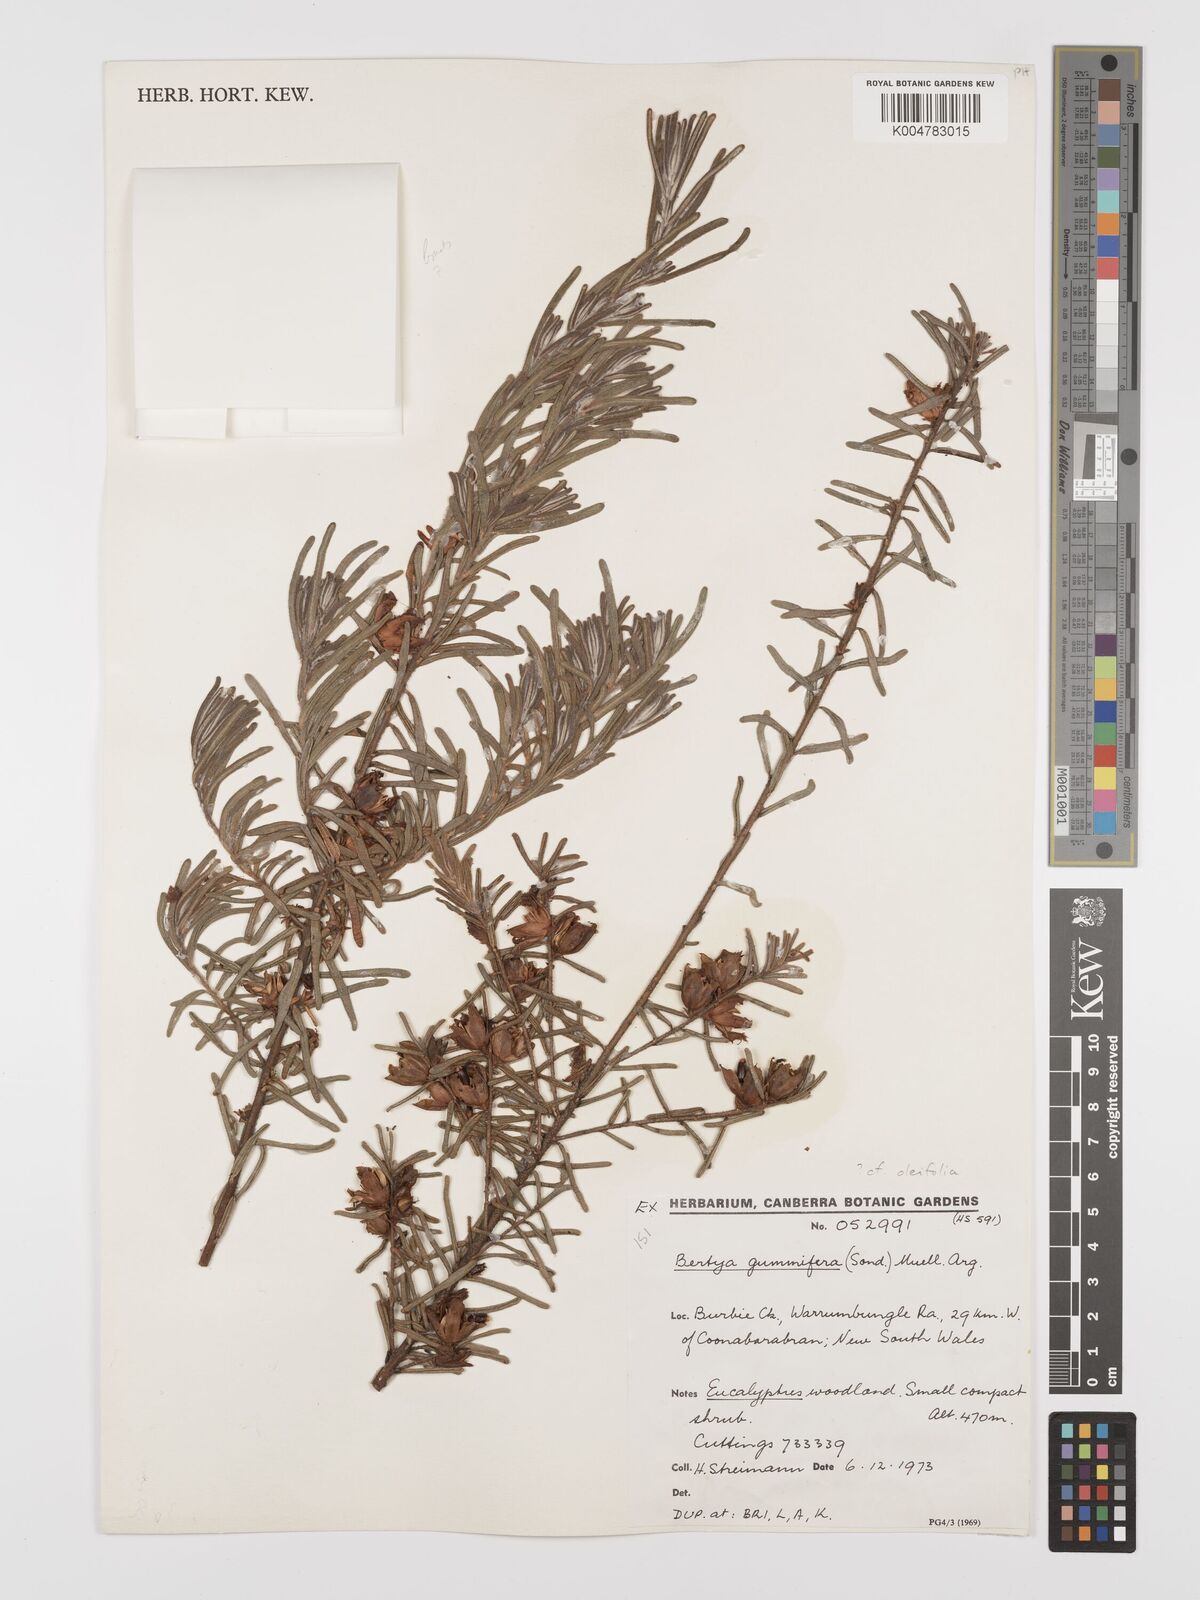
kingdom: Plantae
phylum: Tracheophyta
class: Magnoliopsida
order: Malpighiales
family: Euphorbiaceae
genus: Bertya
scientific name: Bertya gummifera
